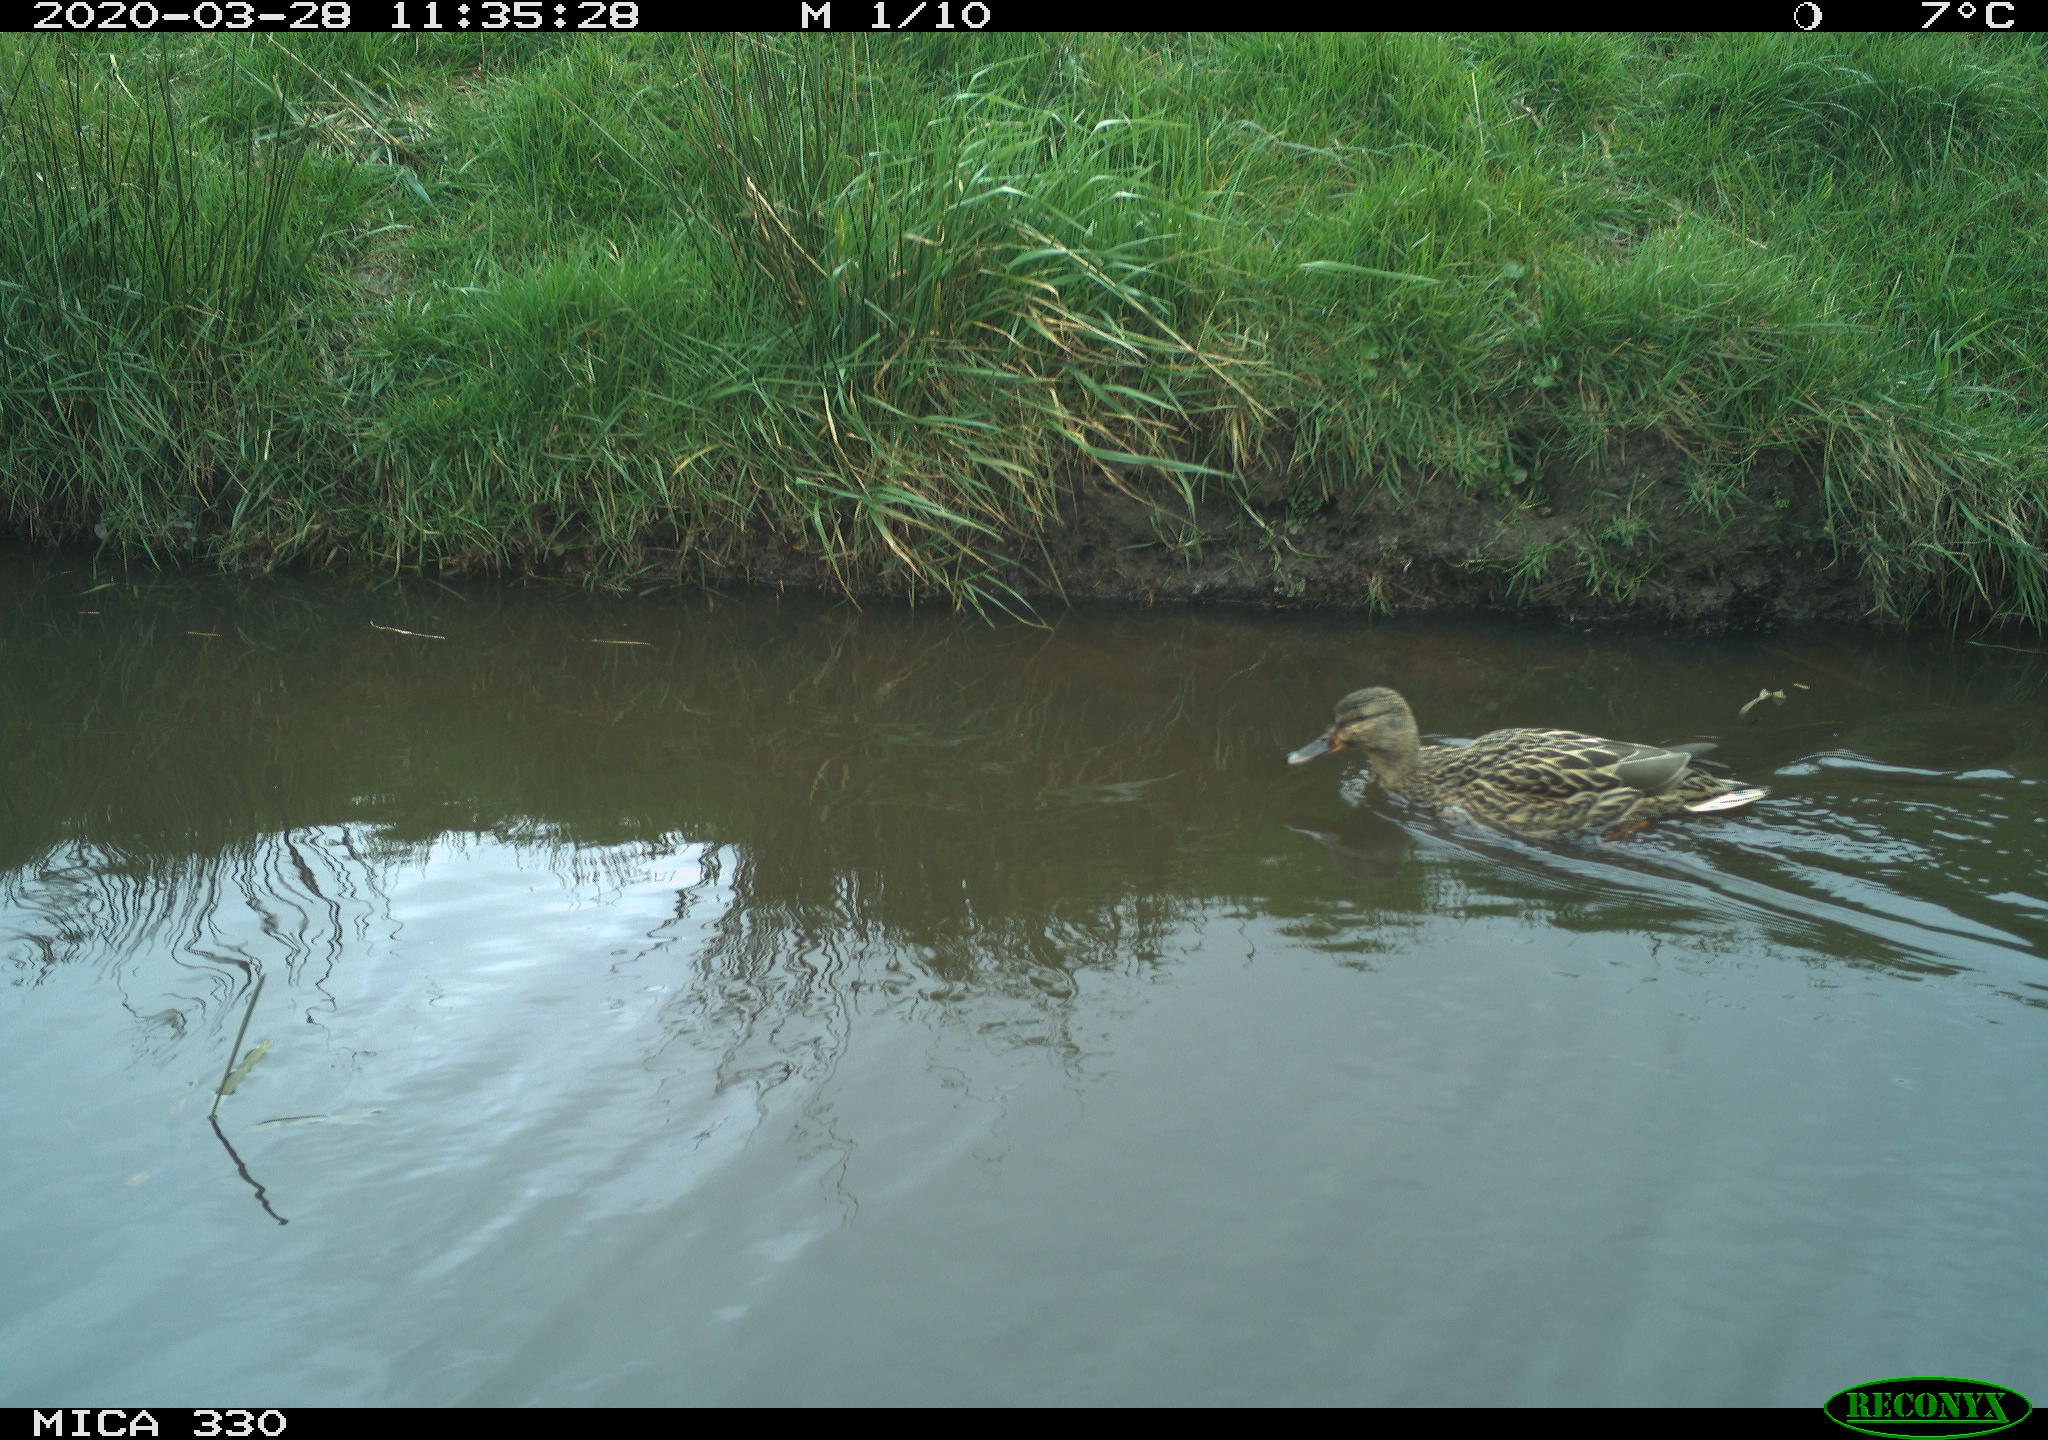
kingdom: Animalia
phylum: Chordata
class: Aves
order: Anseriformes
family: Anatidae
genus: Anas
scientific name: Anas platyrhynchos
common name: Mallard
